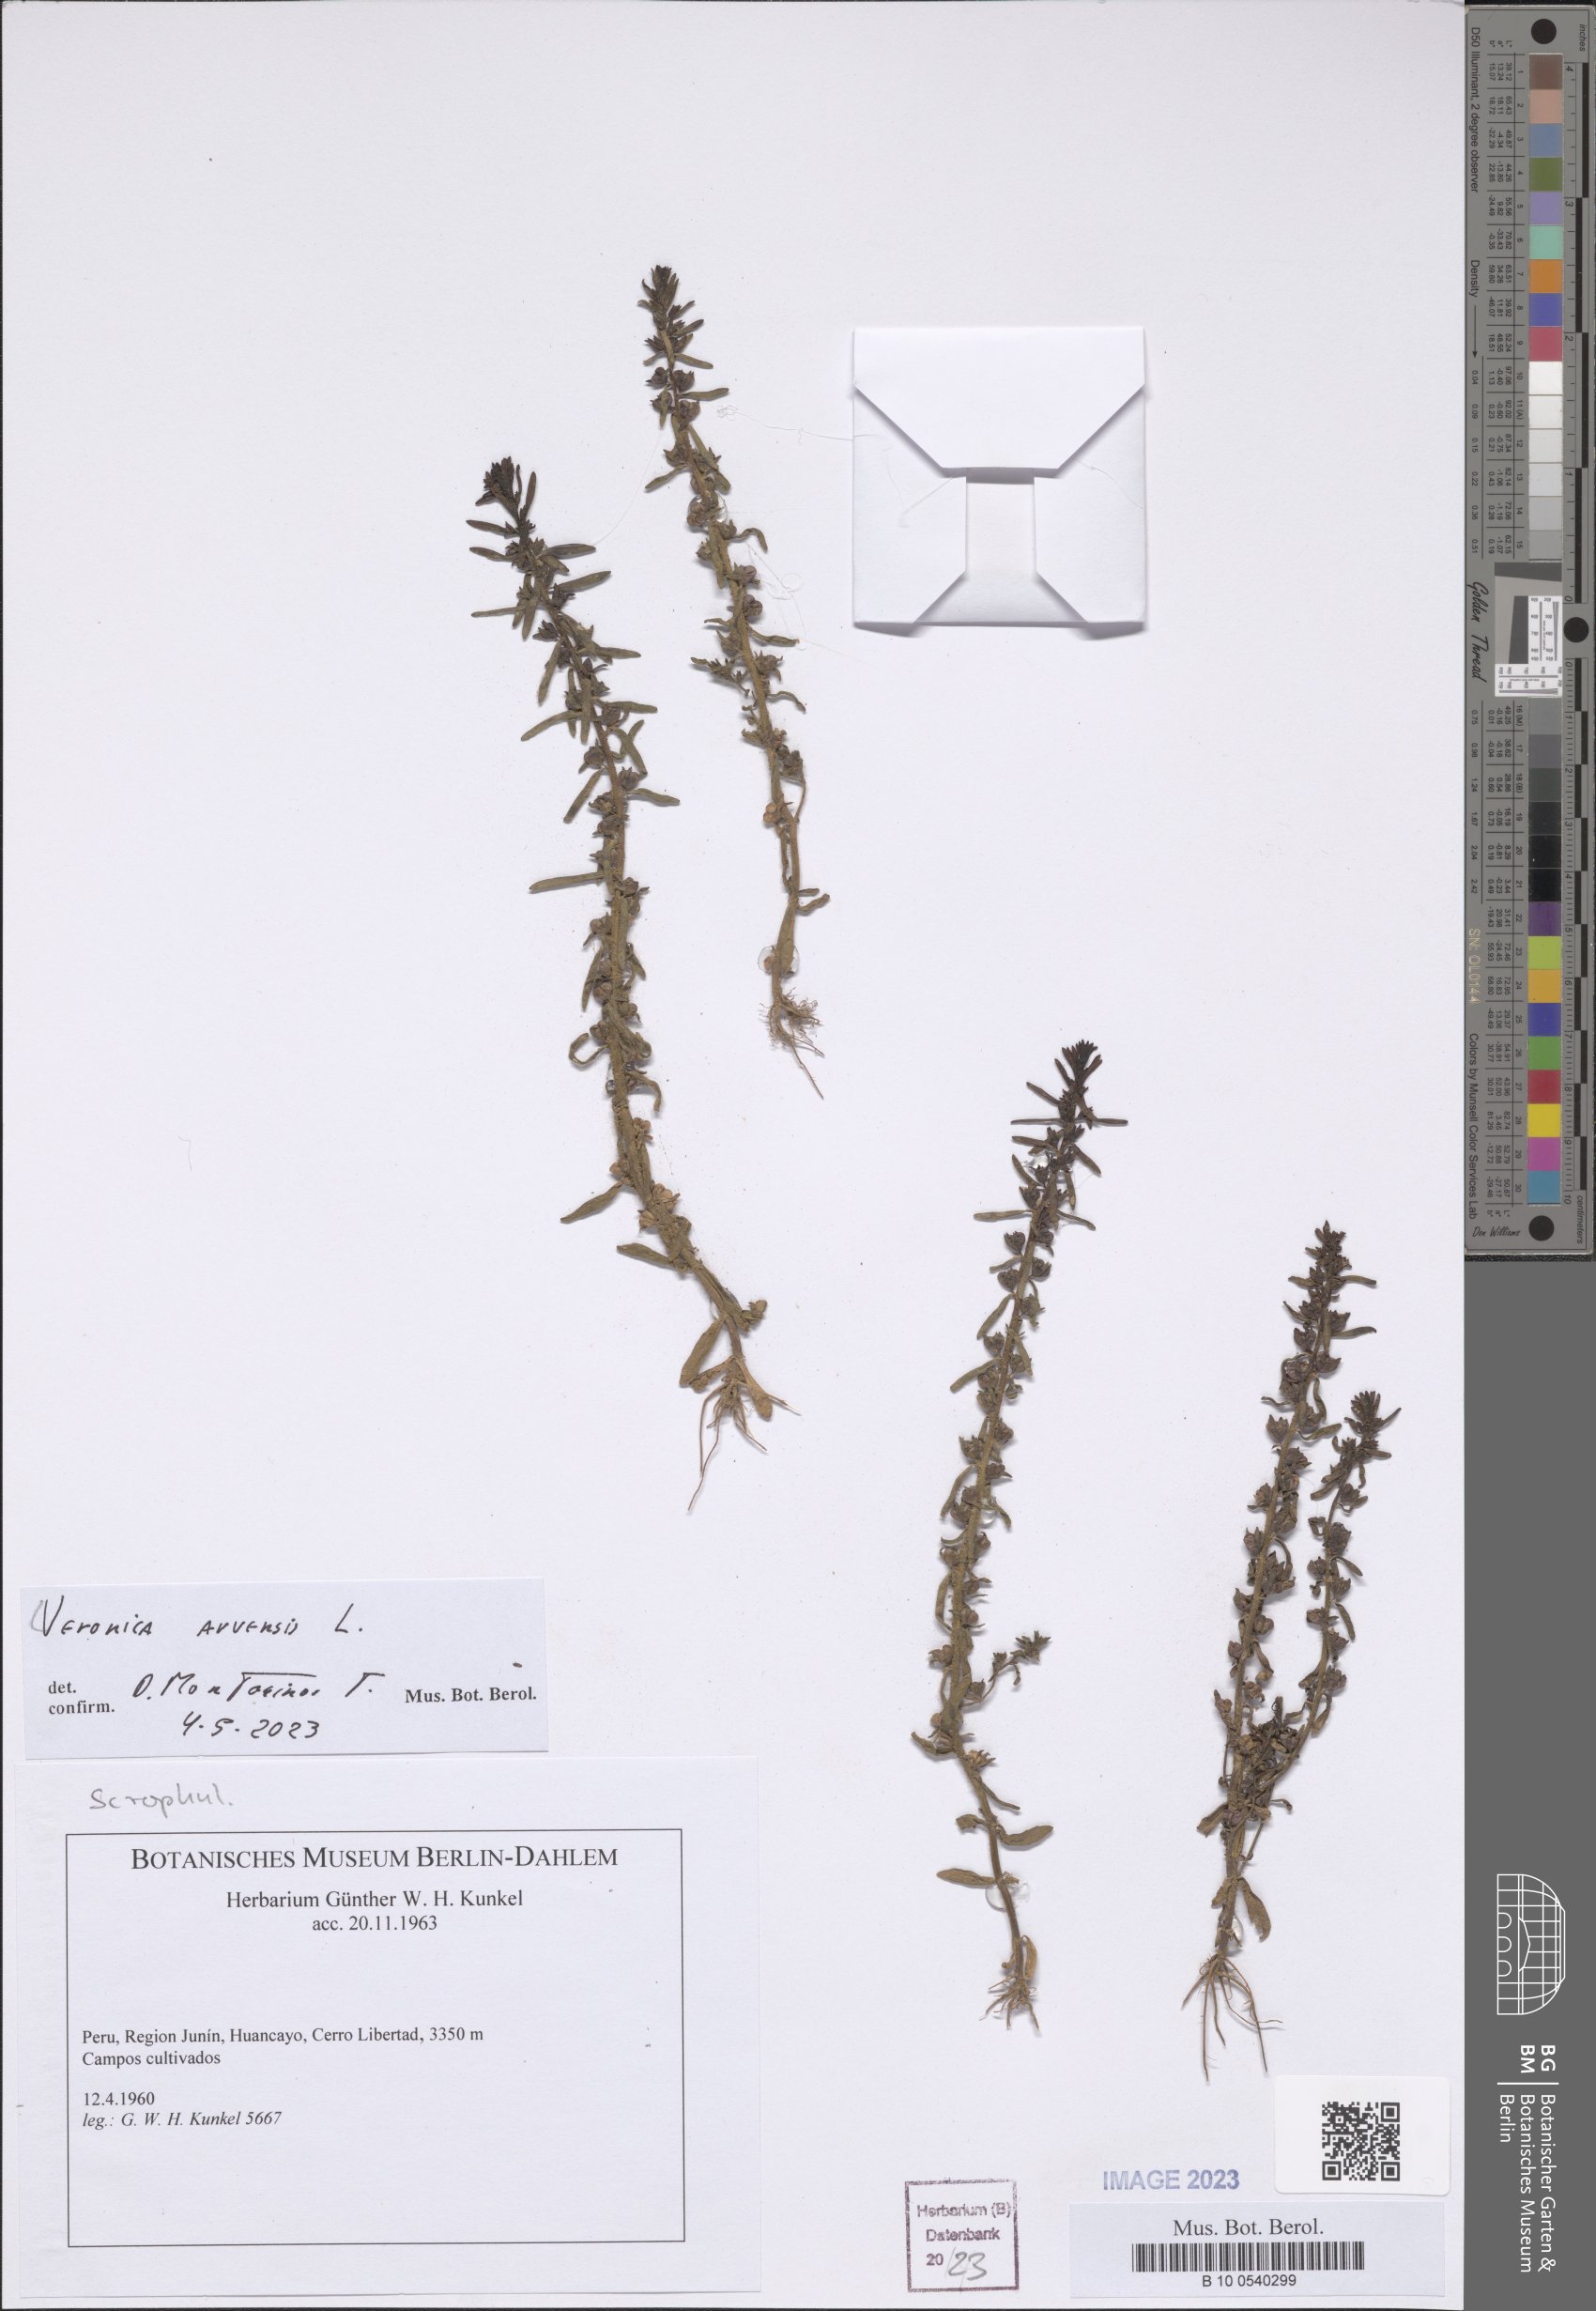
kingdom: Plantae
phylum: Tracheophyta
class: Magnoliopsida
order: Lamiales
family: Plantaginaceae
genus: Veronica
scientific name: Veronica arvensis
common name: Corn speedwell
